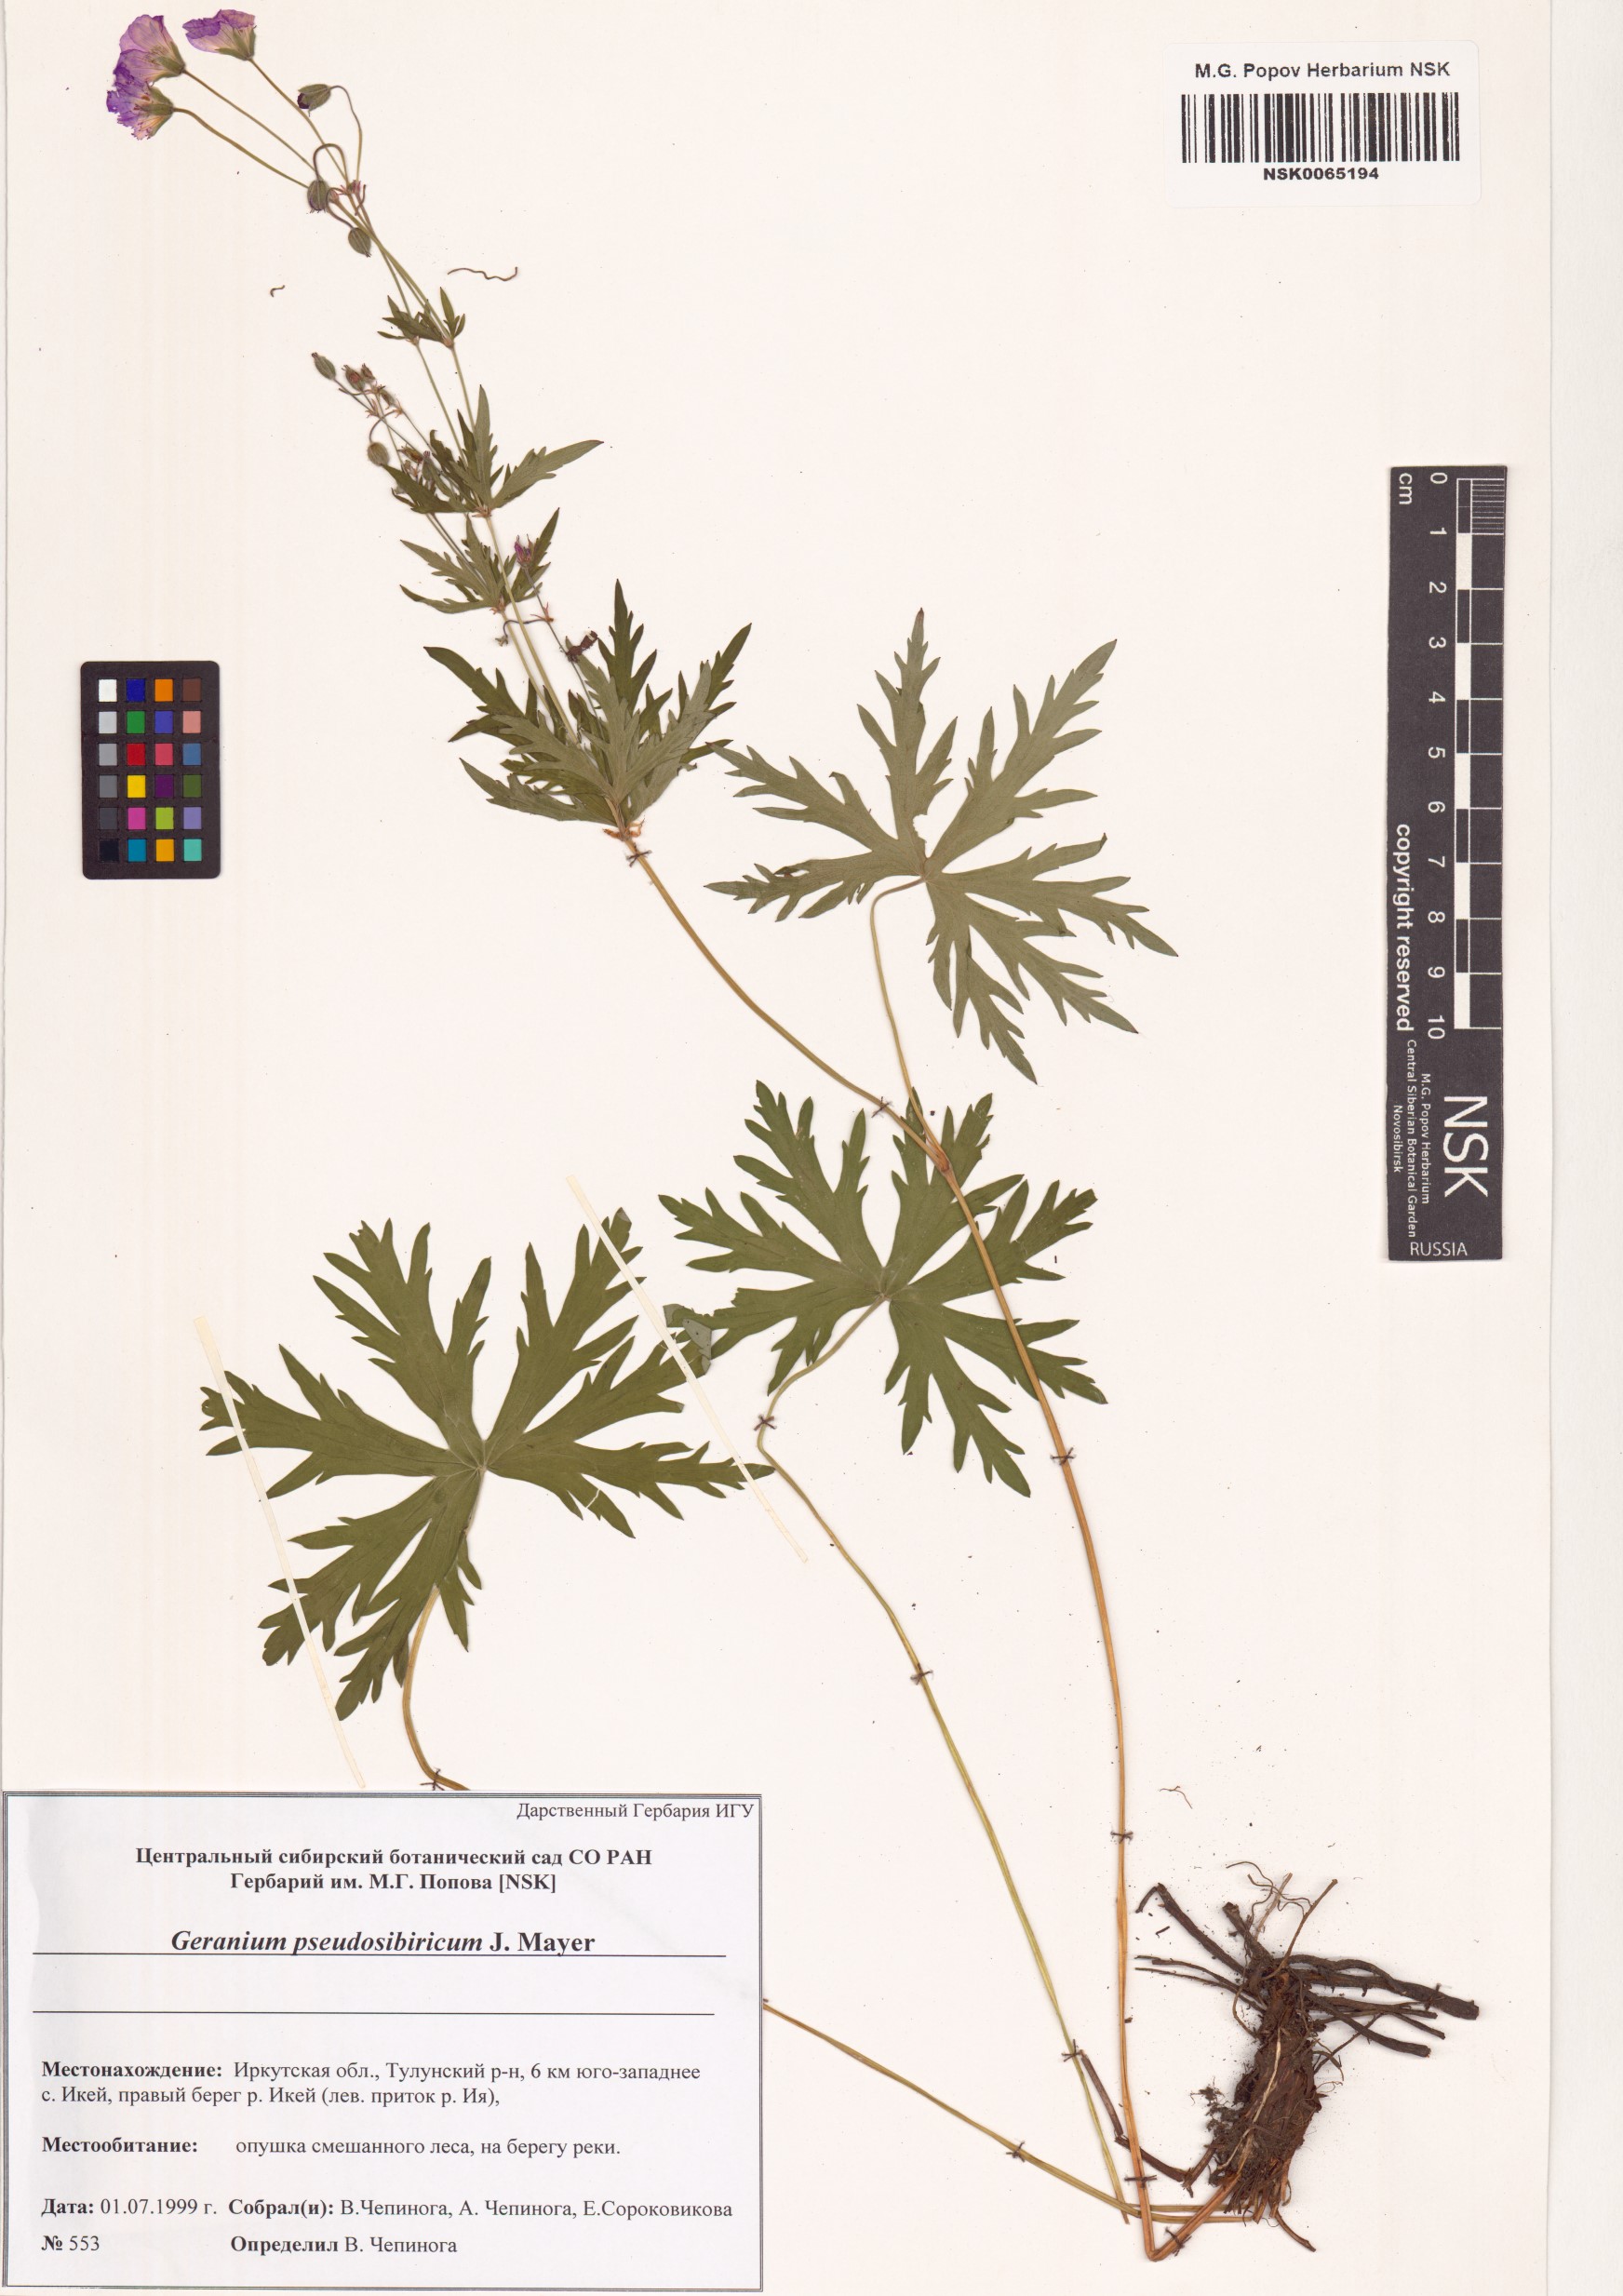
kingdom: Plantae
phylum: Tracheophyta
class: Magnoliopsida
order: Geraniales
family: Geraniaceae
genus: Geranium
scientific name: Geranium pseudosibiricum
